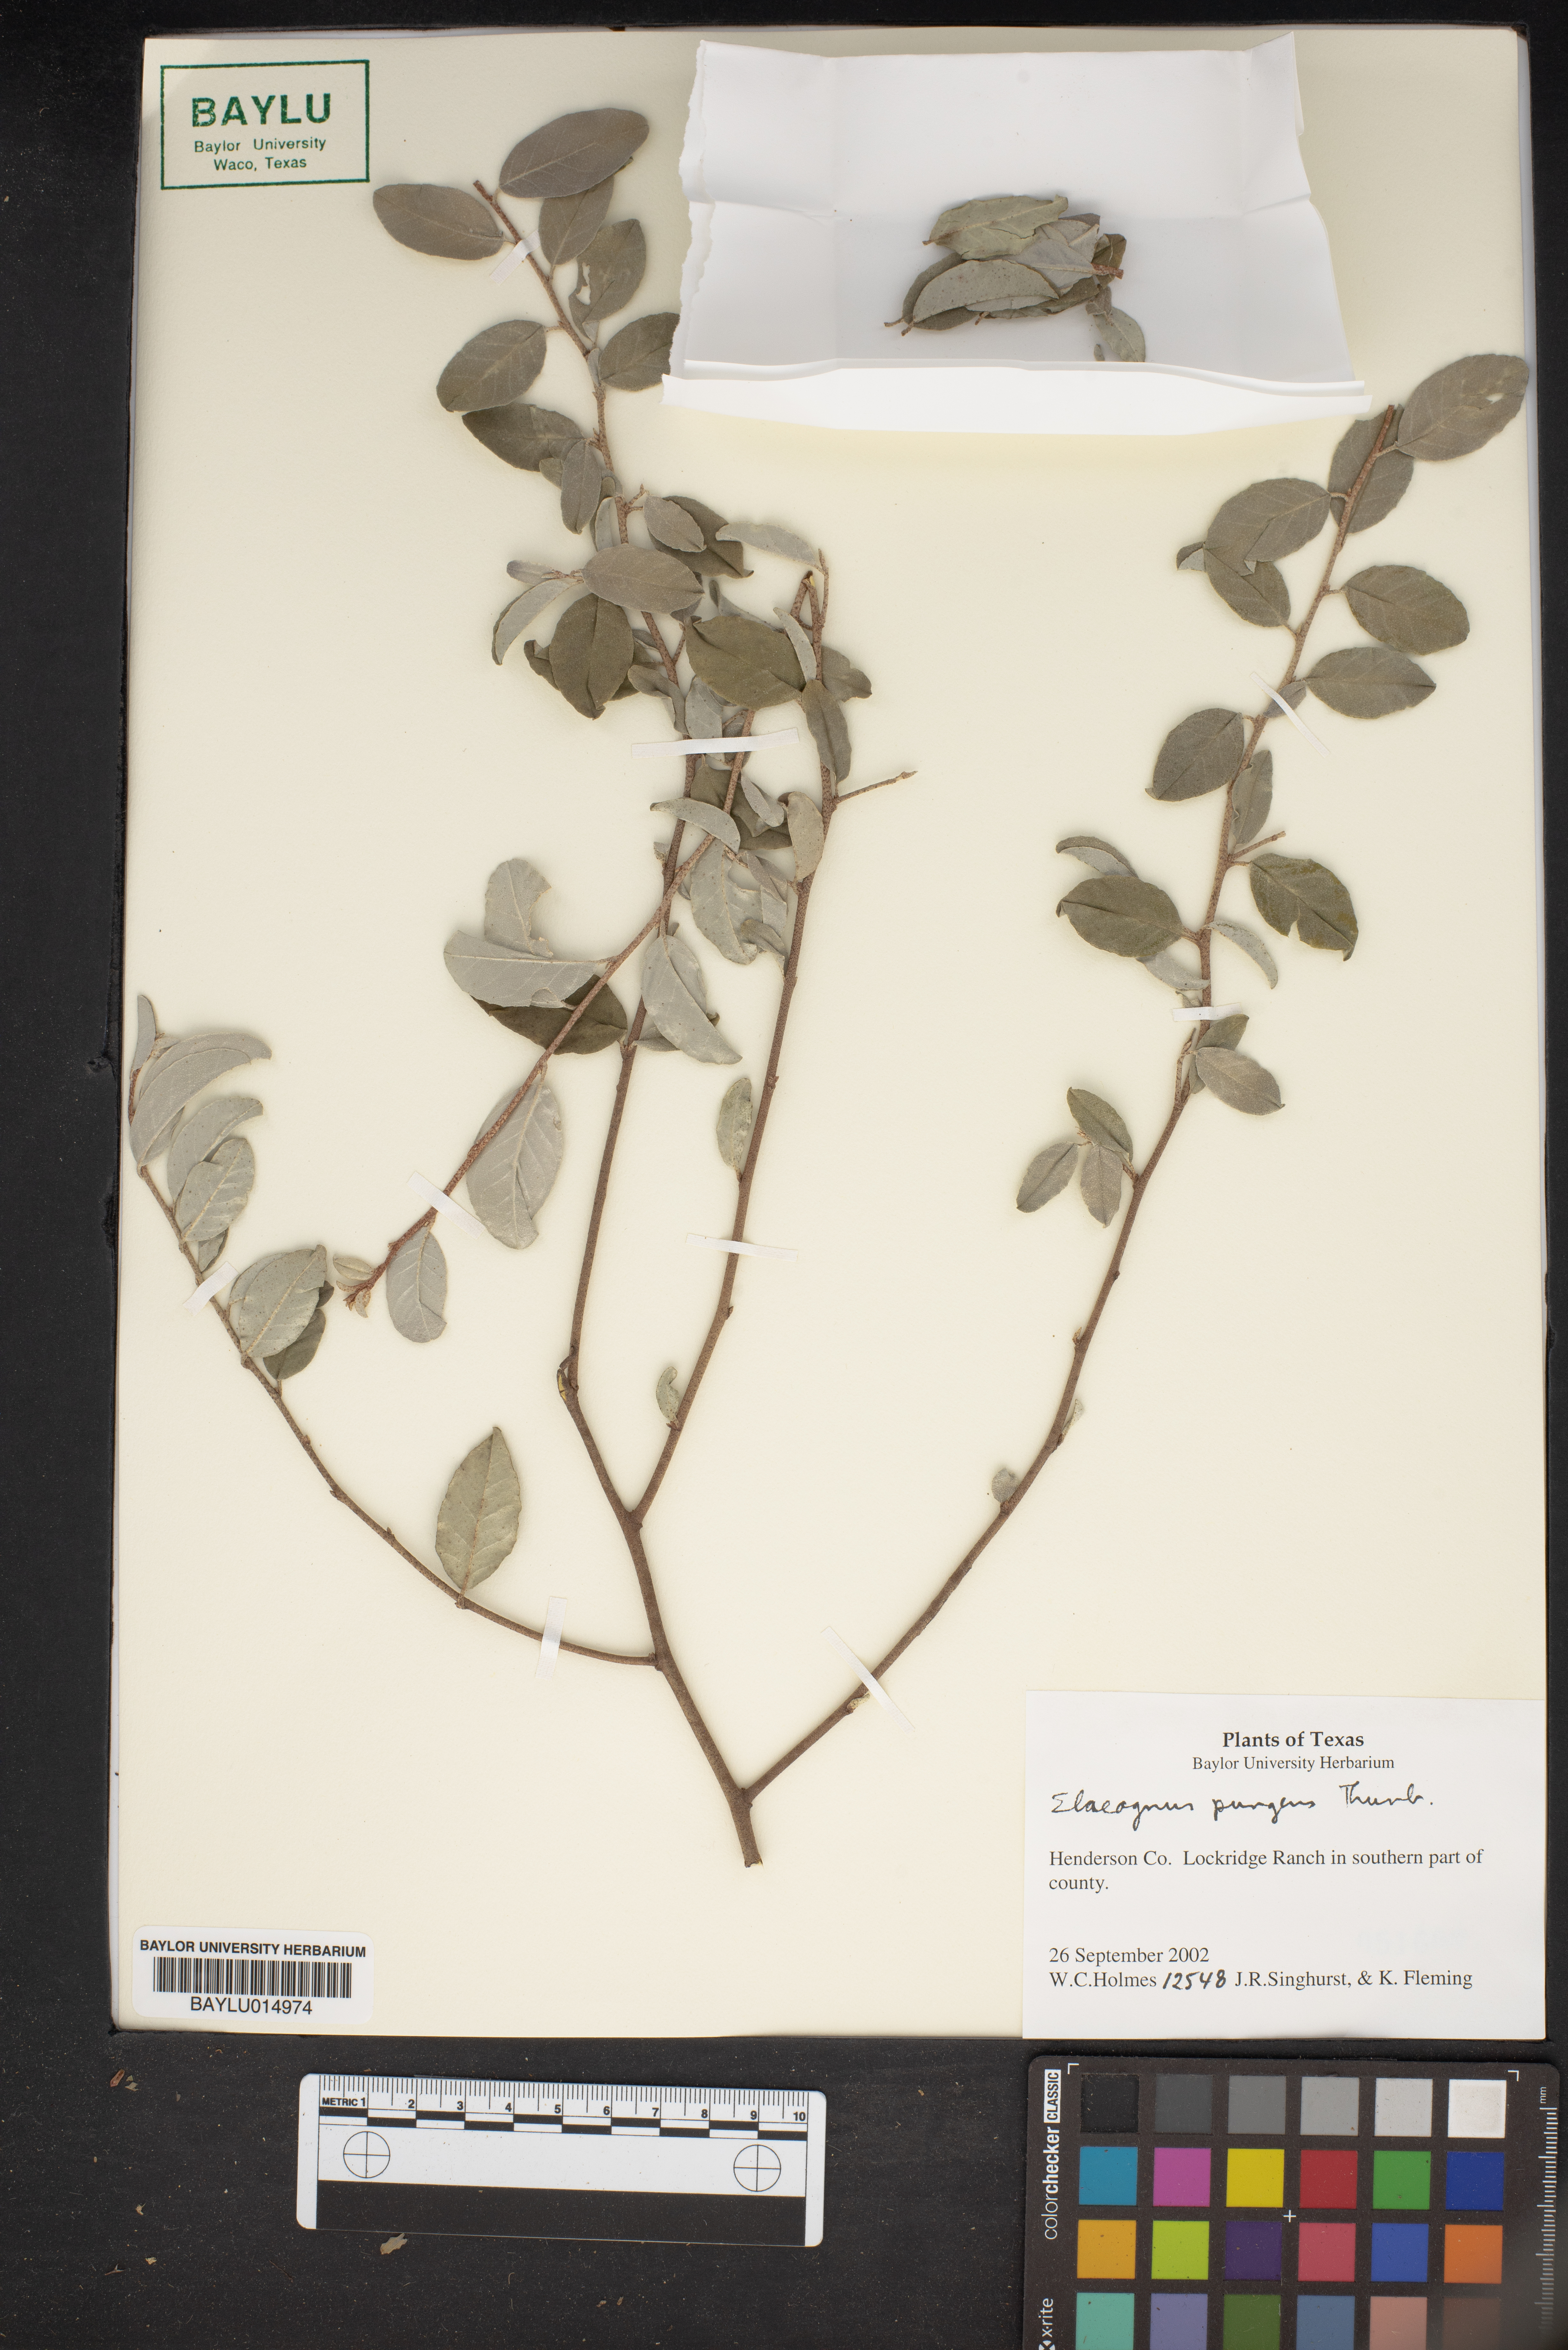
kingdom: Plantae
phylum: Tracheophyta
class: Magnoliopsida
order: Rosales
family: Elaeagnaceae
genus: Elaeagnus
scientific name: Elaeagnus pungens
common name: Spiny oleaster
